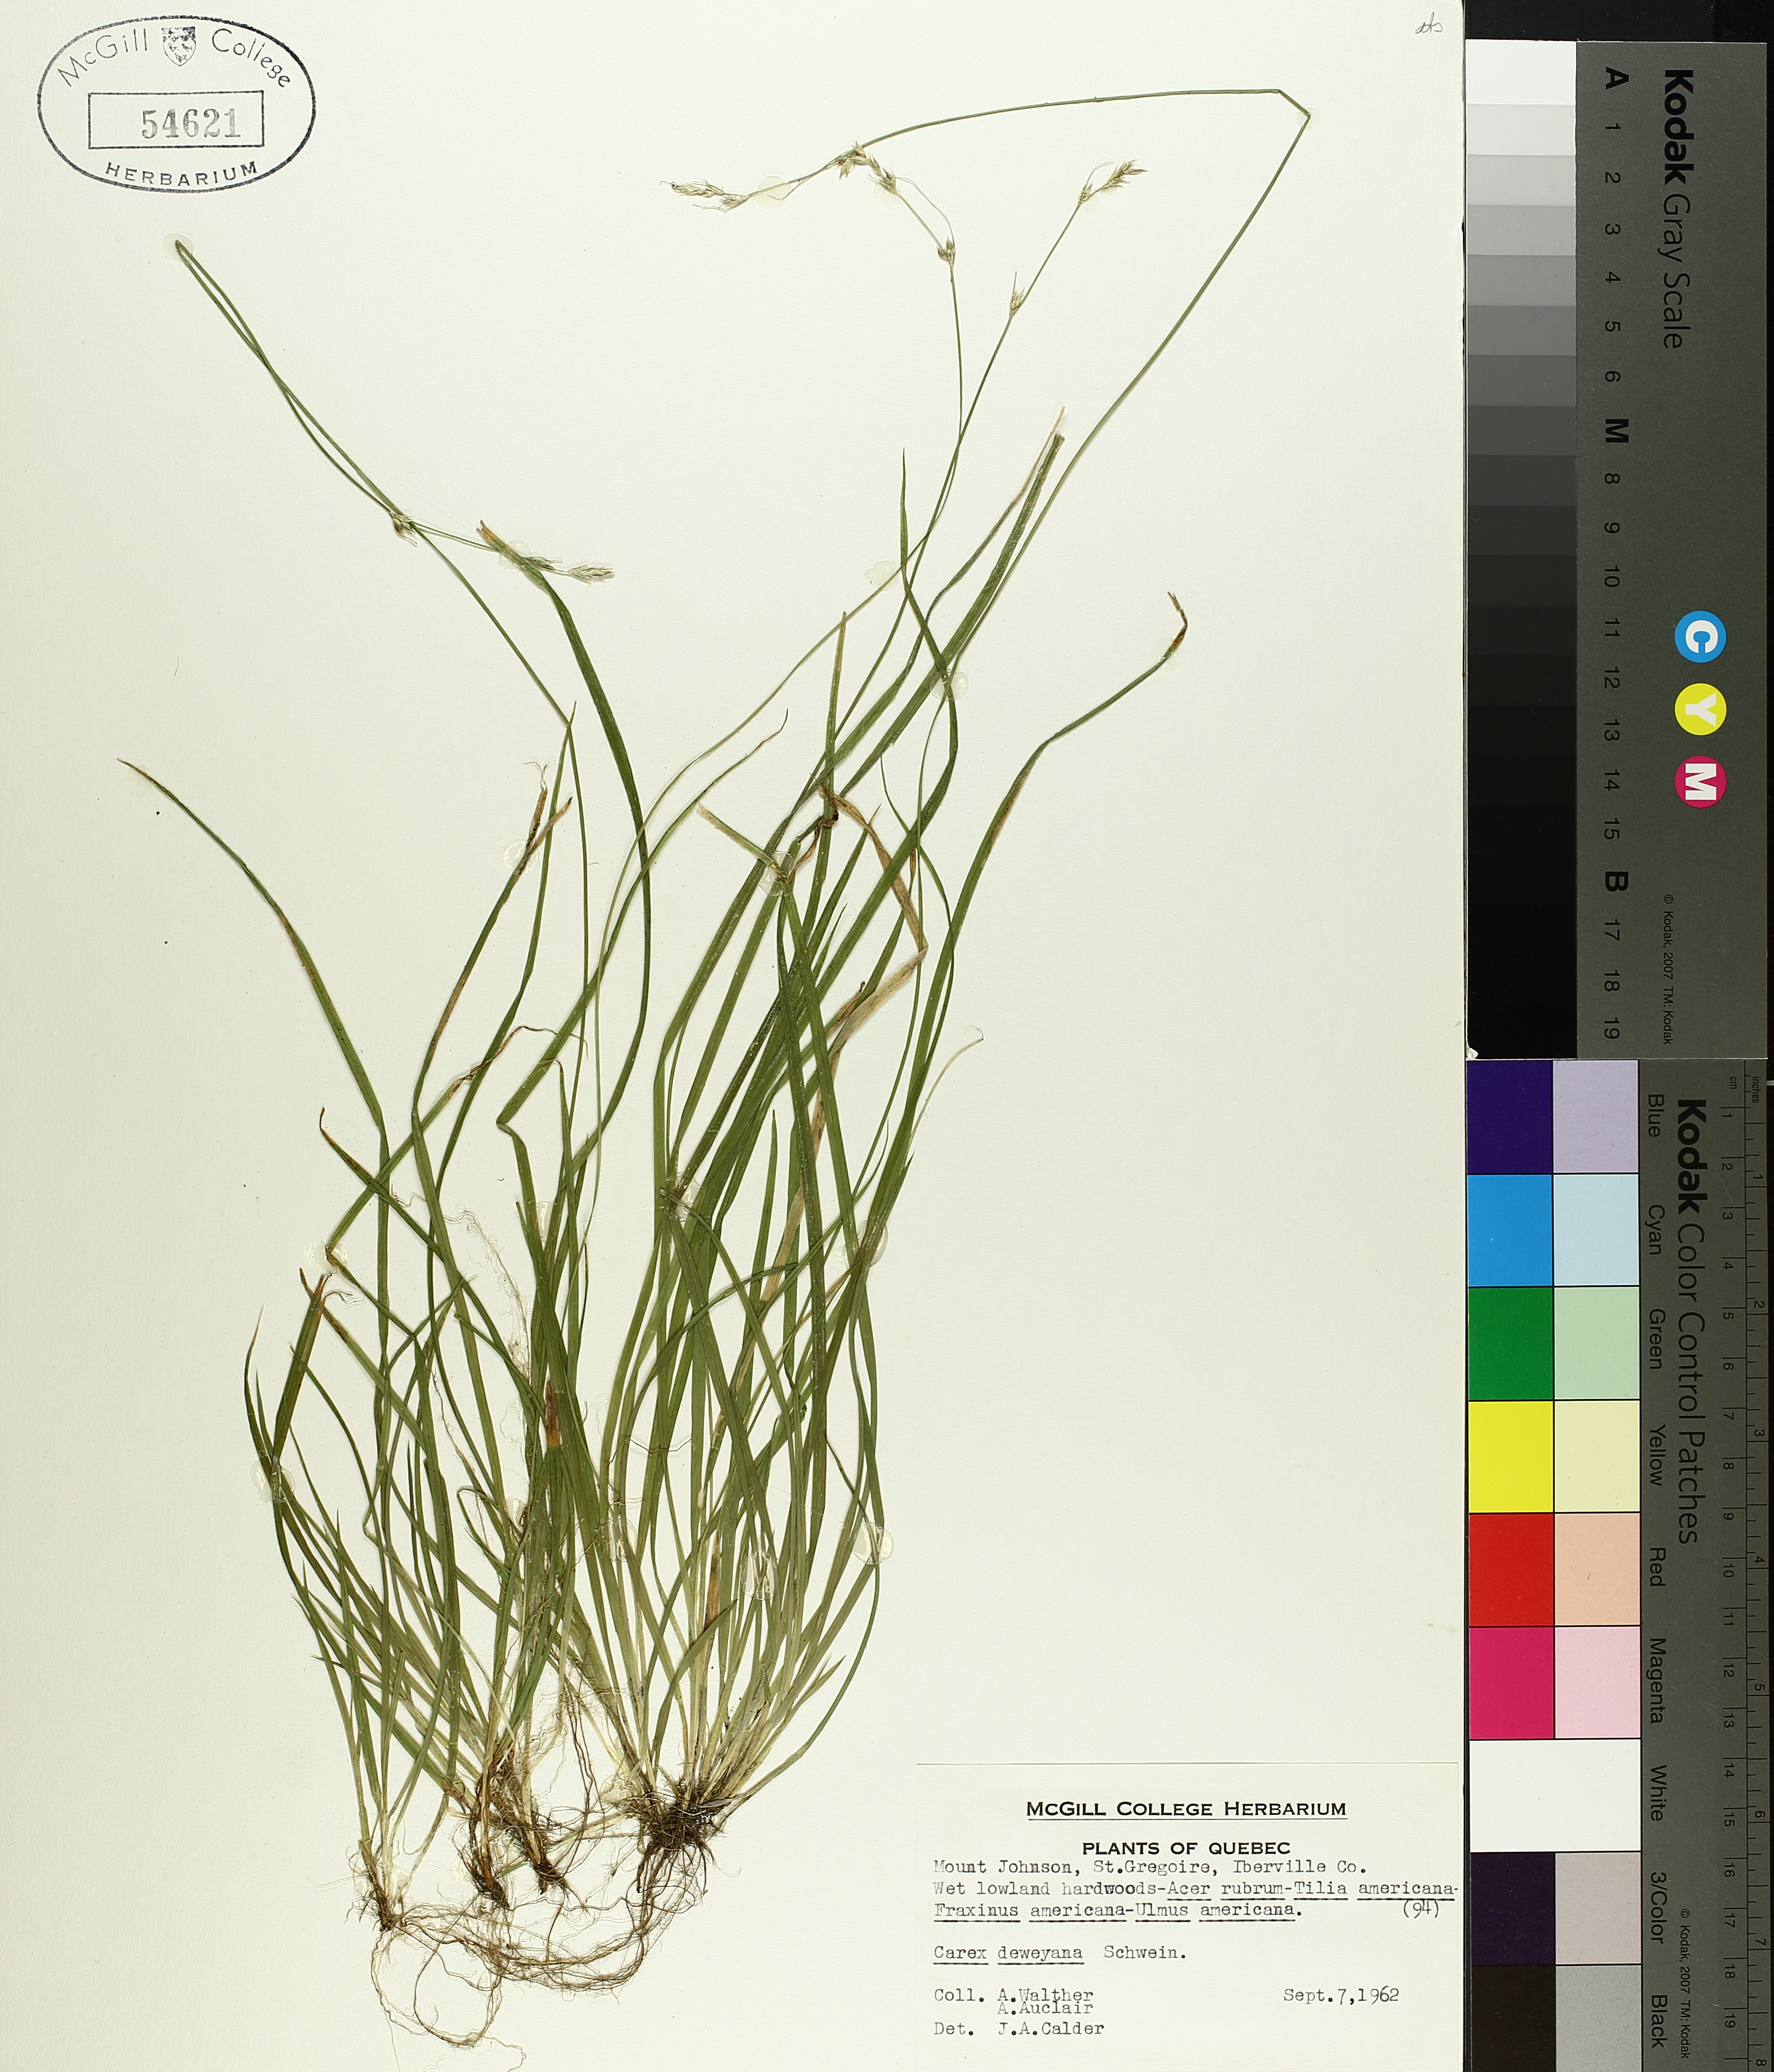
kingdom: Plantae
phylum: Tracheophyta
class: Liliopsida
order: Poales
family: Cyperaceae
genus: Carex
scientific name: Carex deweyana
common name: Dewey's sedge
